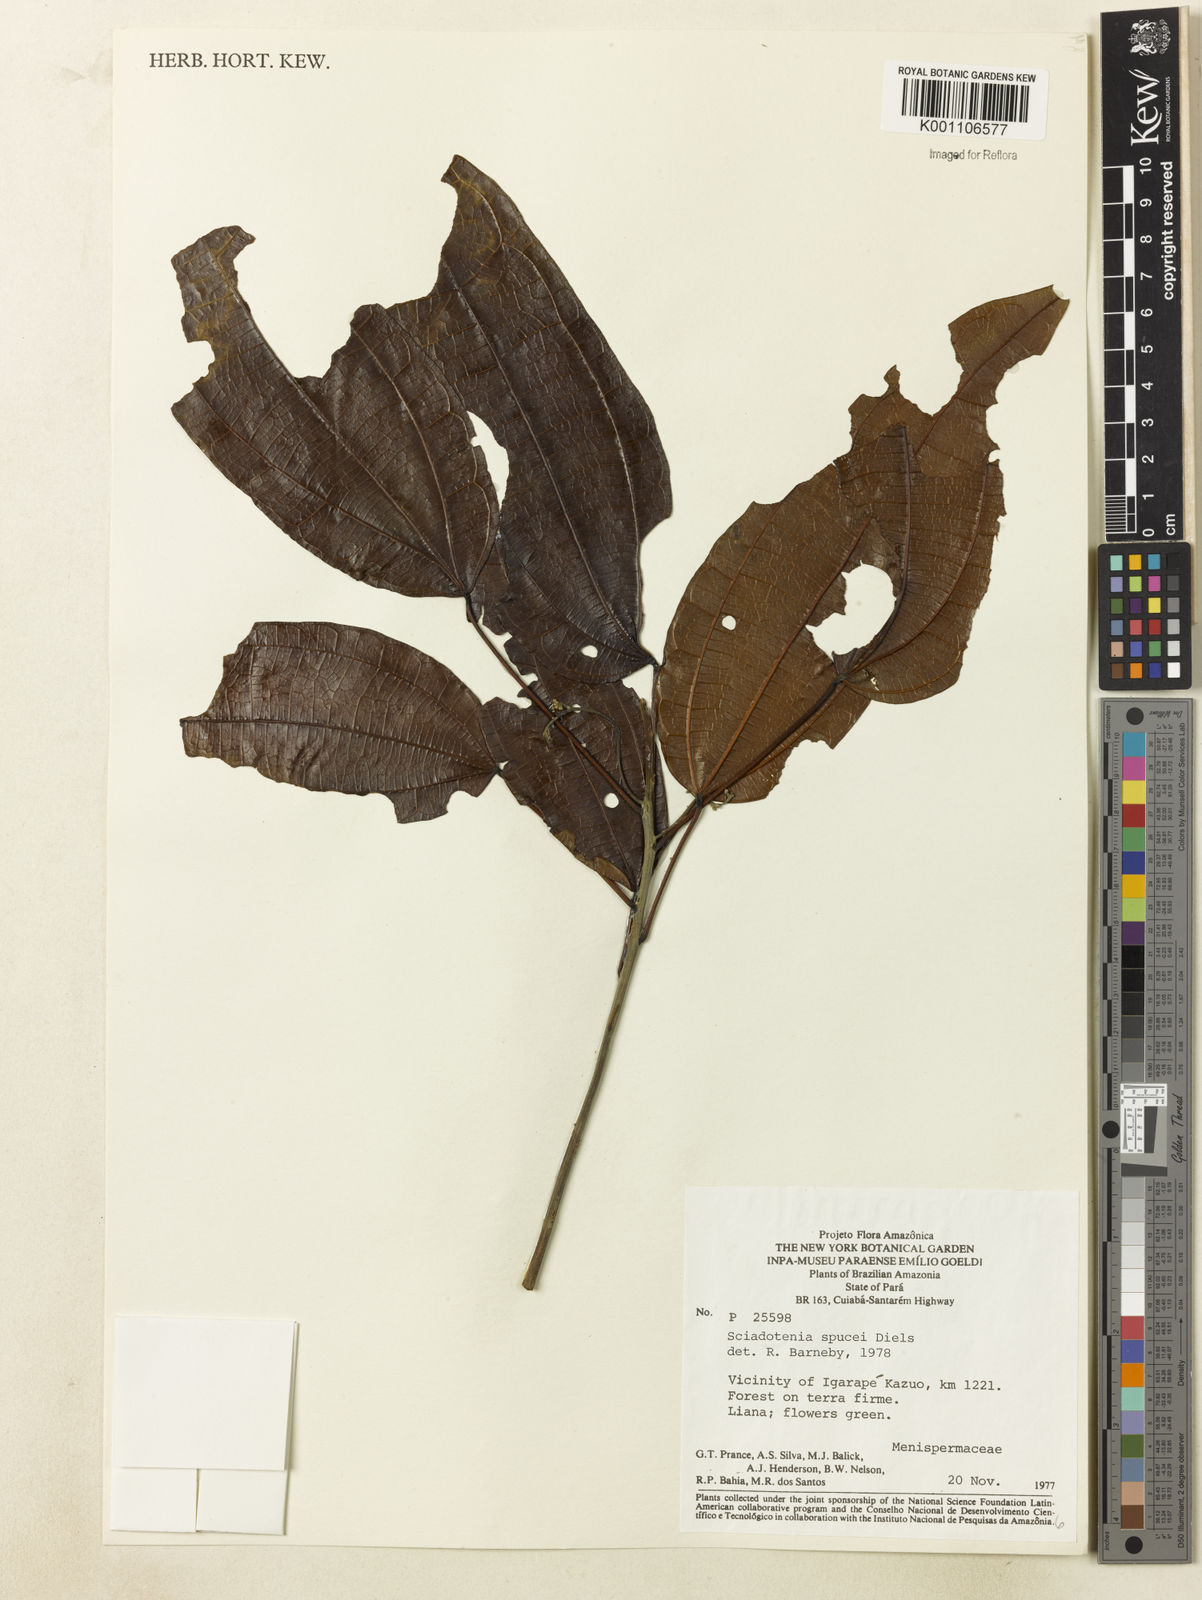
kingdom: Plantae
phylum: Tracheophyta
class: Magnoliopsida
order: Ranunculales
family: Menispermaceae
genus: Sciadotenia
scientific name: Sciadotenia
